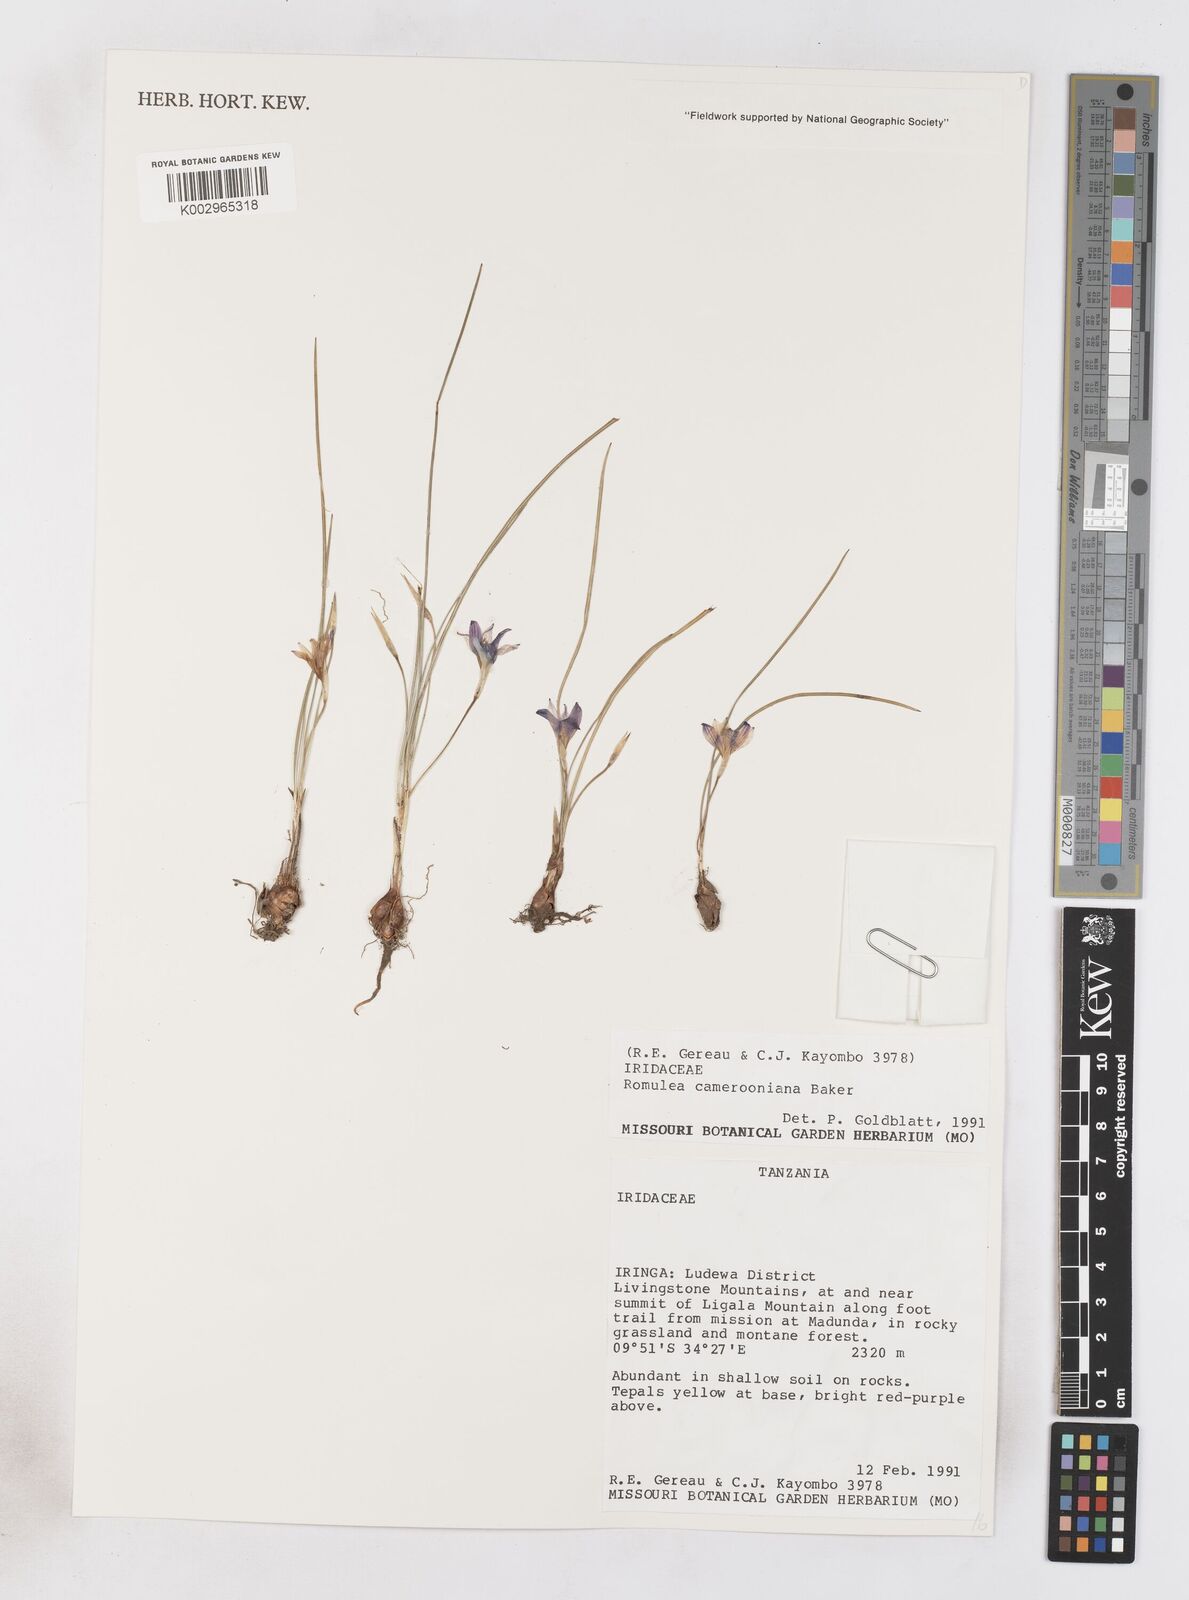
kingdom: Plantae
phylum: Tracheophyta
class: Liliopsida
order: Asparagales
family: Iridaceae
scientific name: Iridaceae
